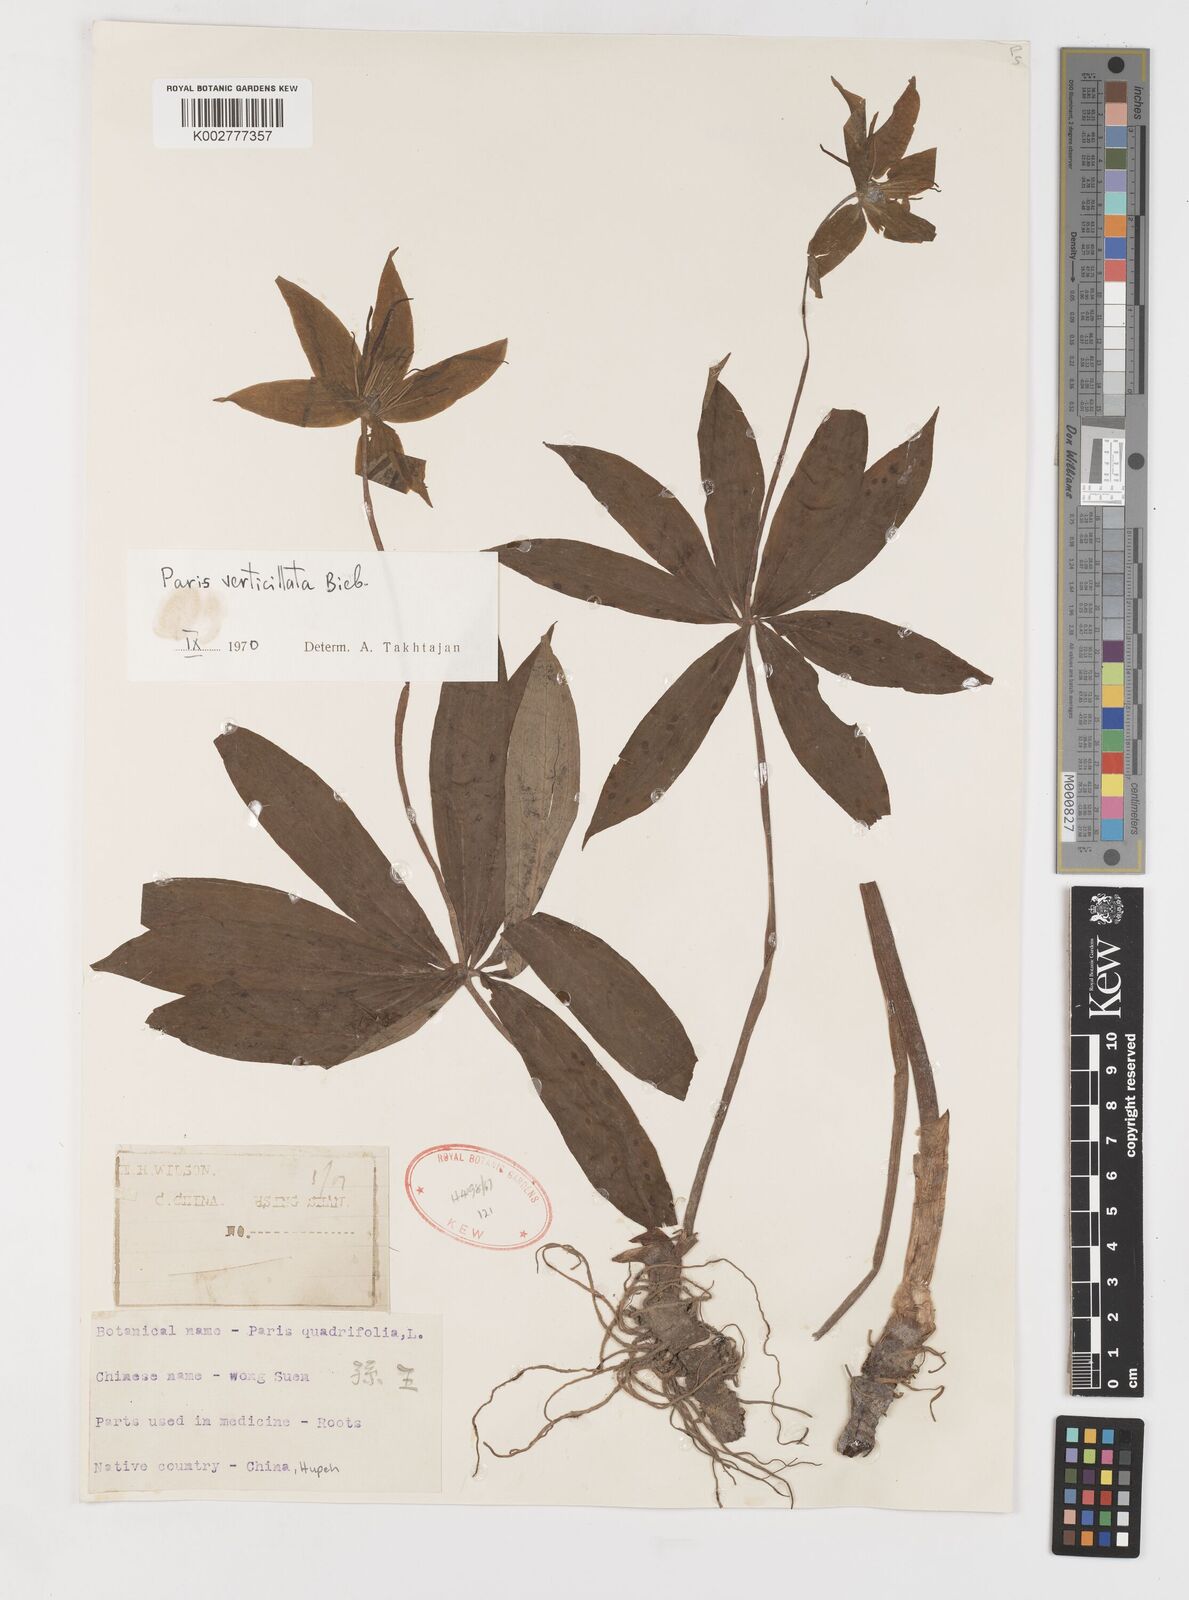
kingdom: Plantae
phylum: Tracheophyta
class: Liliopsida
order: Liliales
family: Melanthiaceae
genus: Paris
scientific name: Paris verticillata
